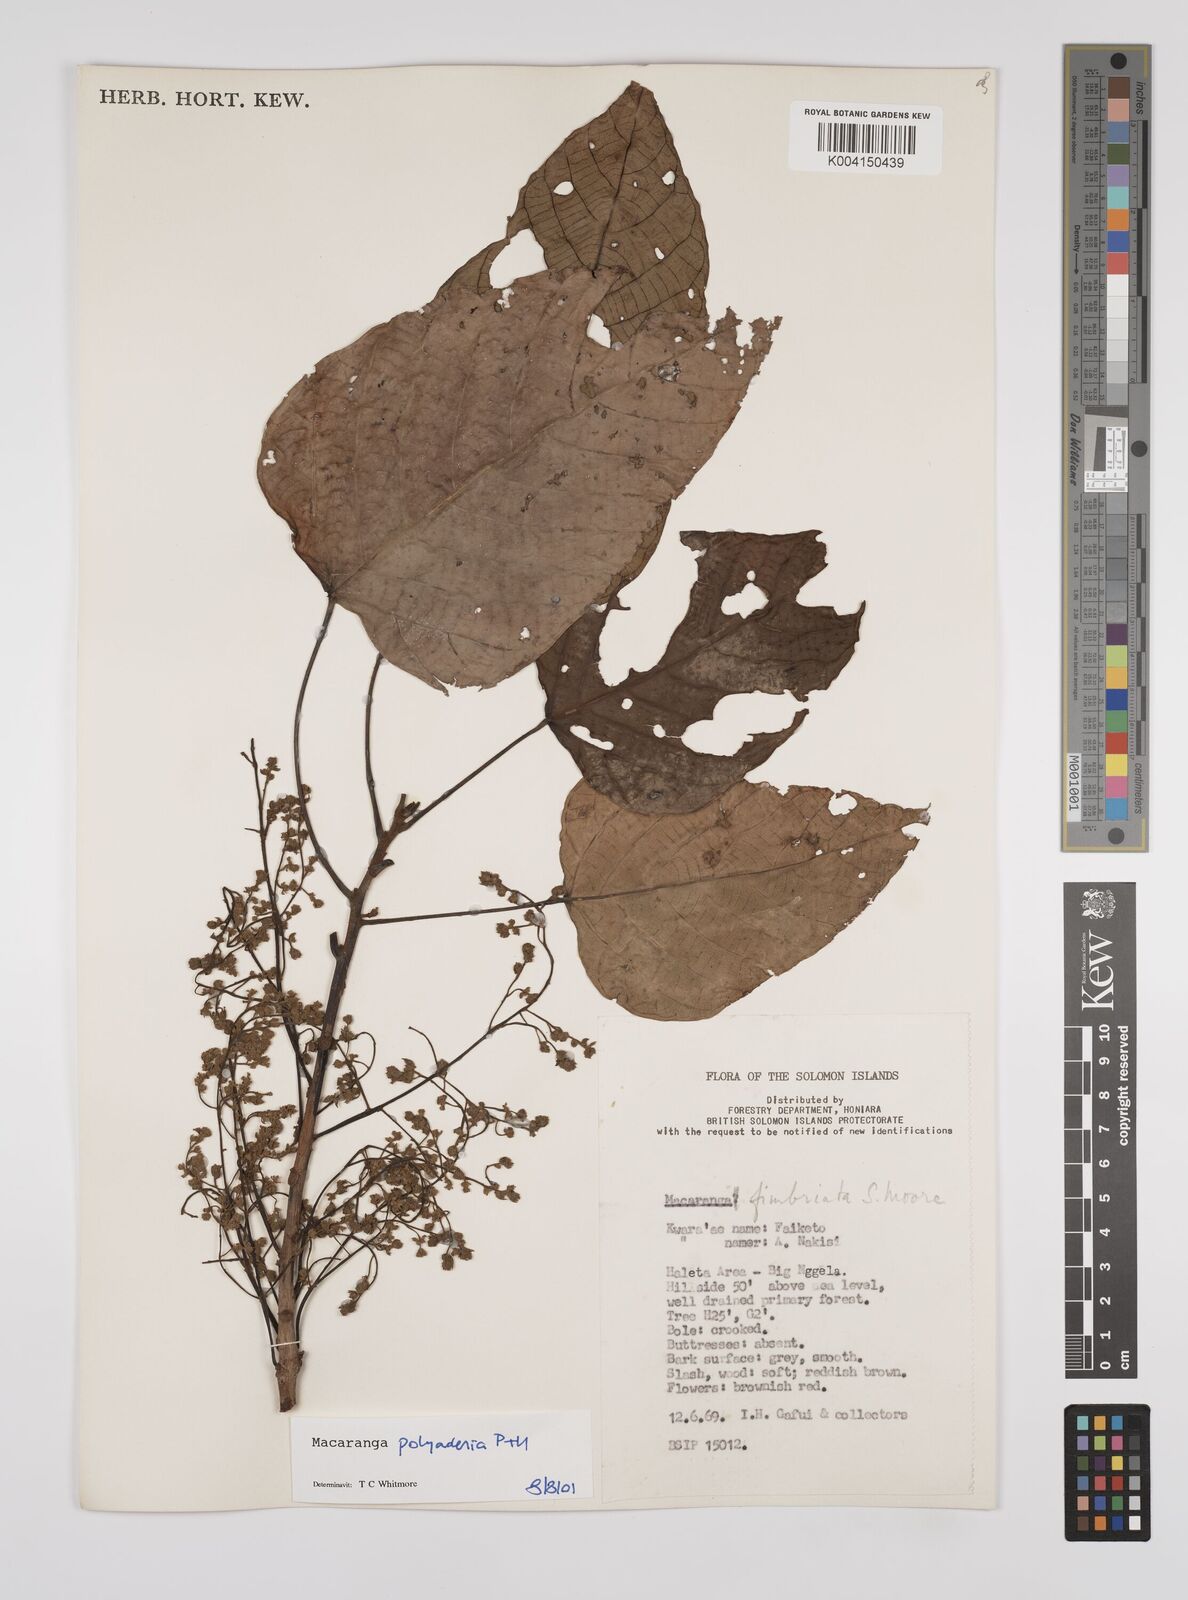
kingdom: Plantae
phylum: Tracheophyta
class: Magnoliopsida
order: Malpighiales
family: Euphorbiaceae
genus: Macaranga
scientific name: Macaranga polyadenia
